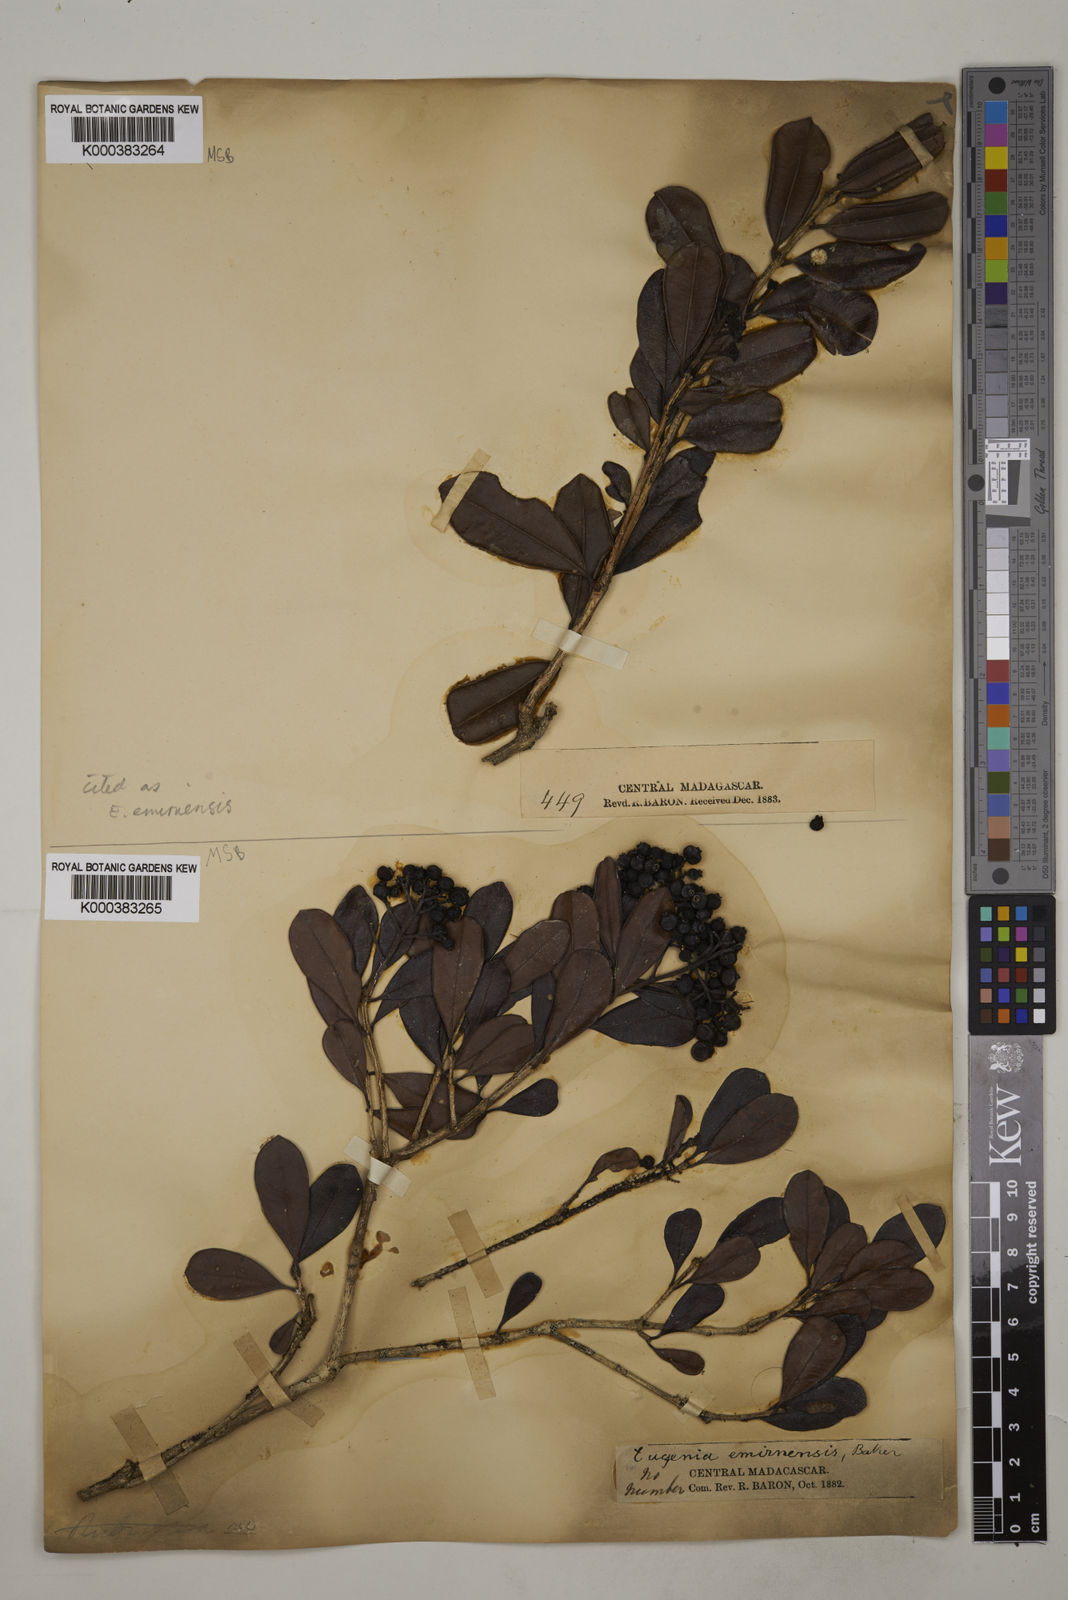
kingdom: Plantae
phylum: Tracheophyta
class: Magnoliopsida
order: Myrtales
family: Myrtaceae
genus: Syzygium
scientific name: Syzygium emirnense
